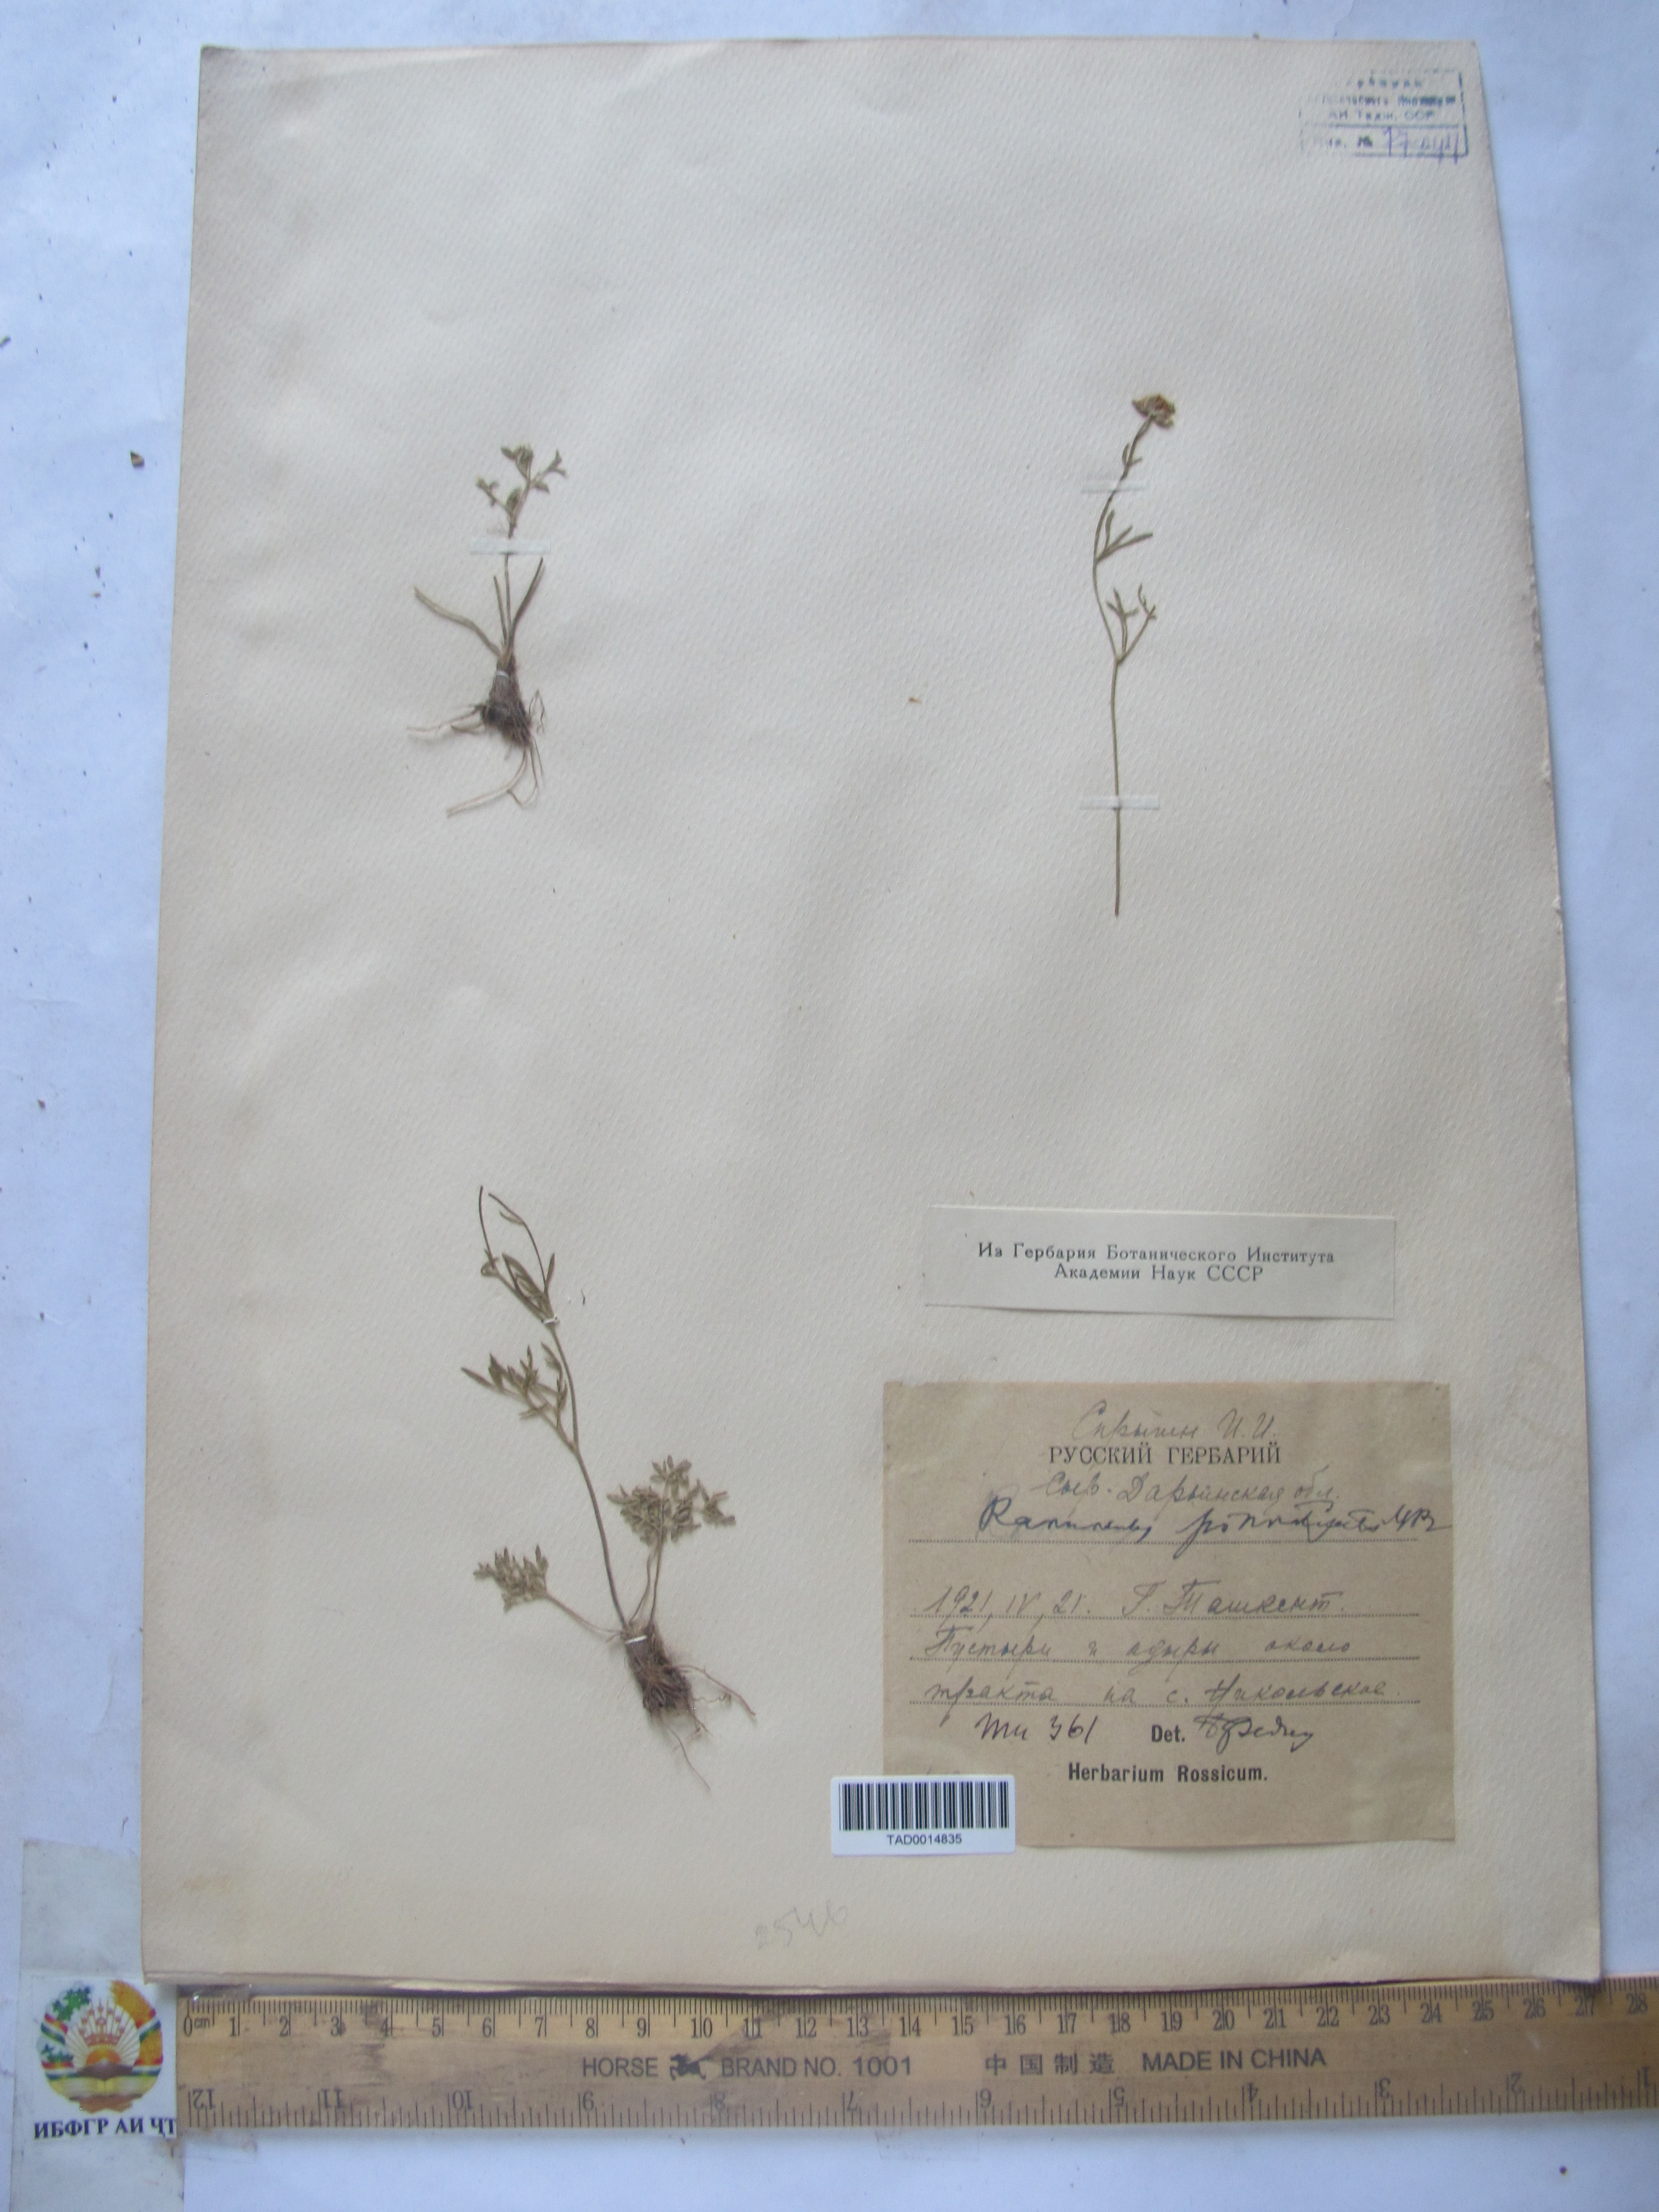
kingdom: Plantae
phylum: Tracheophyta
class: Magnoliopsida
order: Ranunculales
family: Ranunculaceae
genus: Ranunculus
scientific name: Ranunculus pinnatisectus
